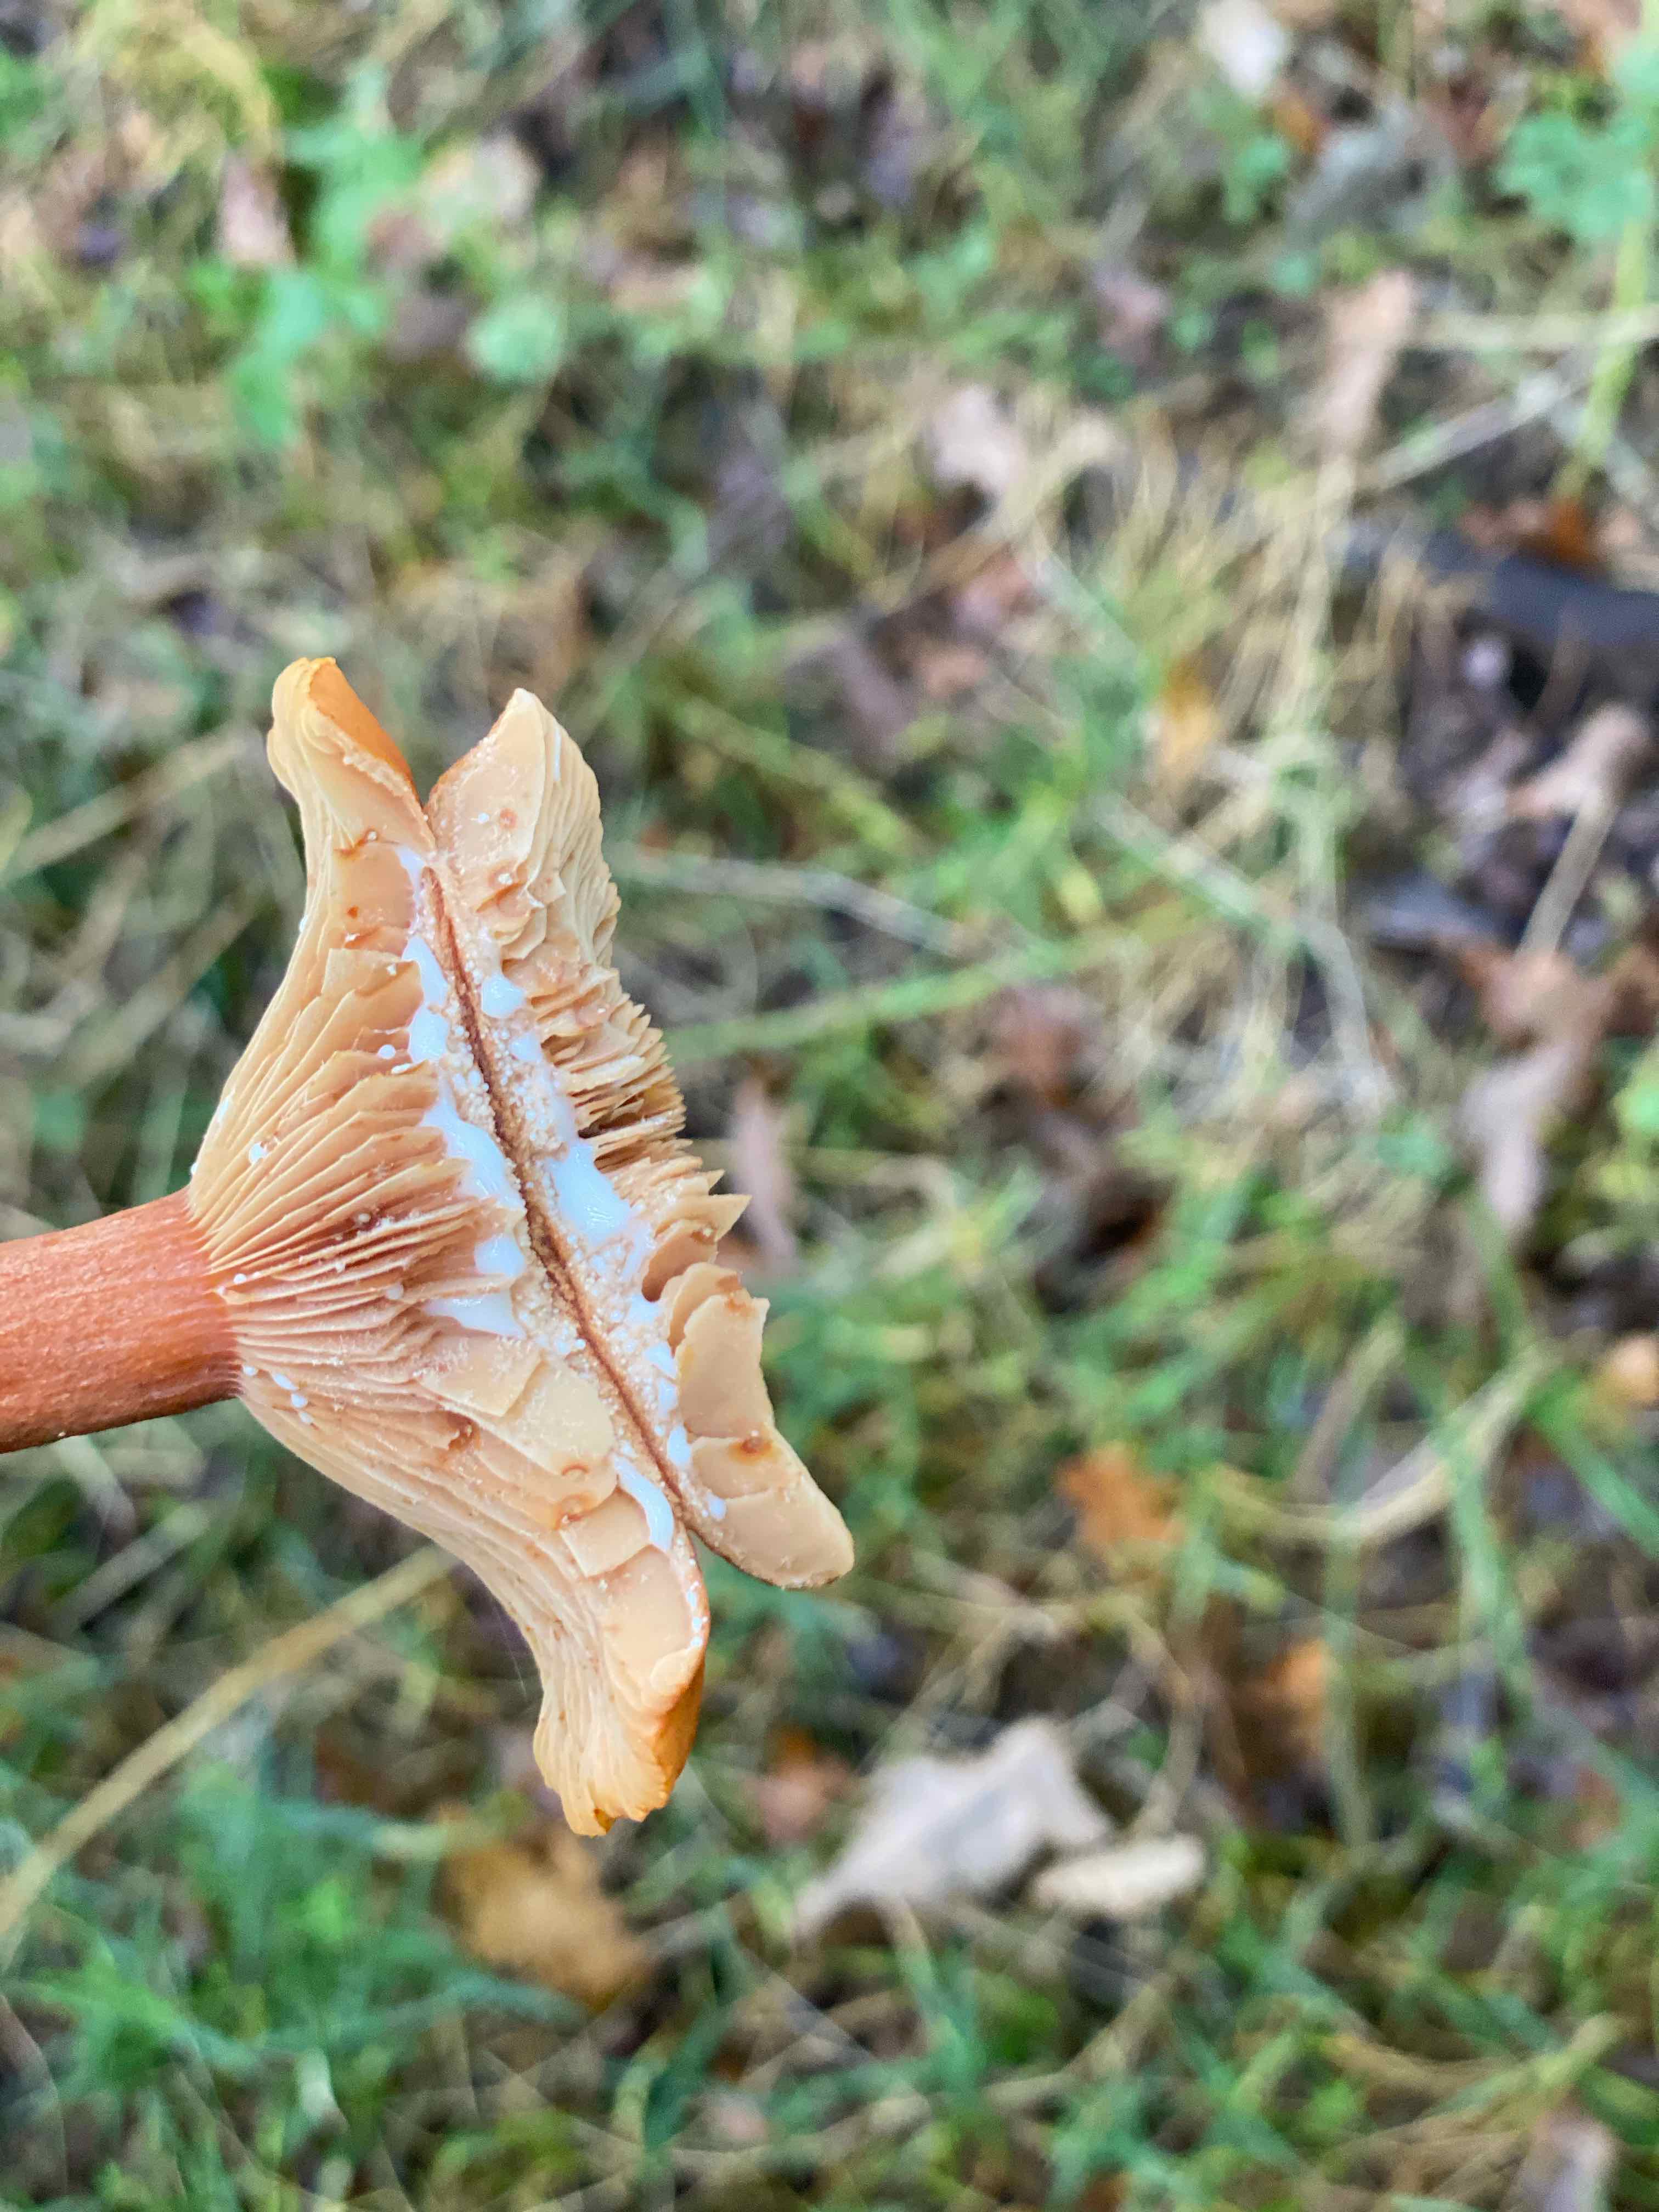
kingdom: Fungi
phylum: Basidiomycota
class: Agaricomycetes
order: Russulales
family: Russulaceae
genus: Lactarius
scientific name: Lactarius fulvissimus
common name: ræve-mælkehat
